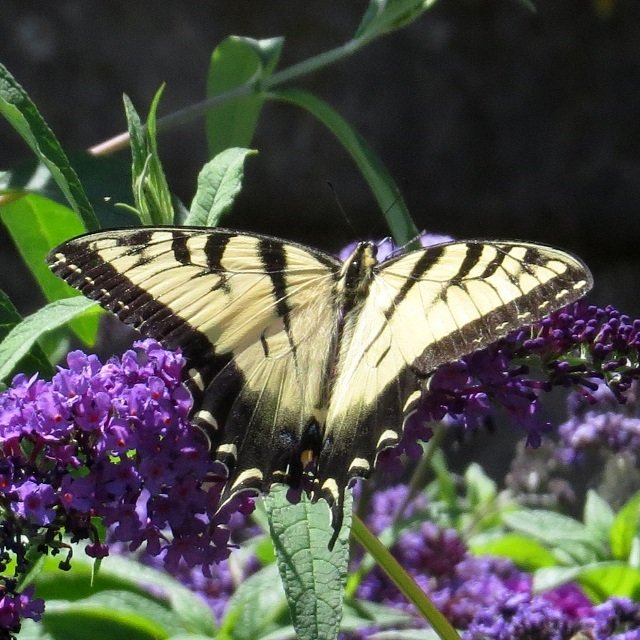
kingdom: Animalia
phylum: Arthropoda
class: Insecta
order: Lepidoptera
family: Papilionidae
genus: Pterourus
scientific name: Pterourus glaucus
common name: Eastern Tiger Swallowtail
